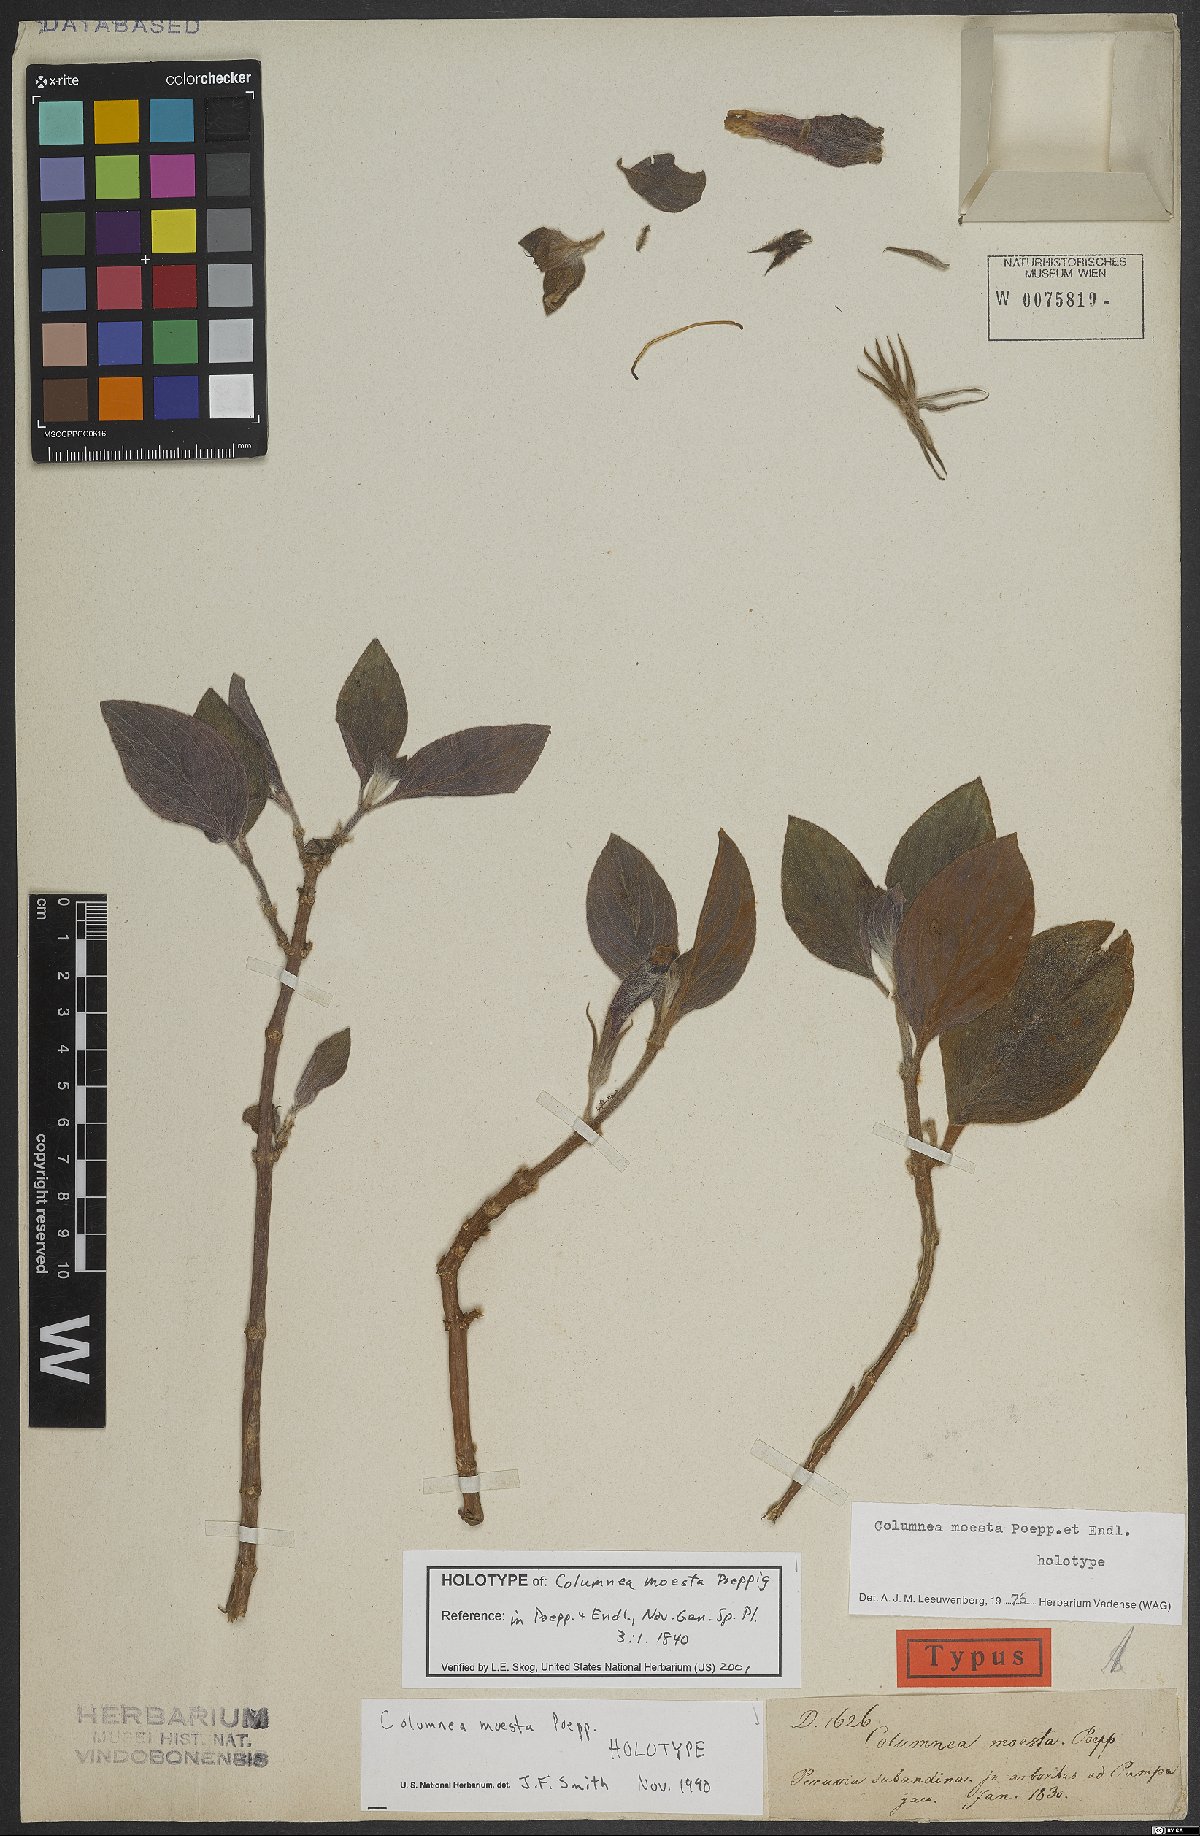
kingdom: Plantae
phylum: Tracheophyta
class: Magnoliopsida
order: Lamiales
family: Gesneriaceae
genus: Columnea
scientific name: Columnea moesta
